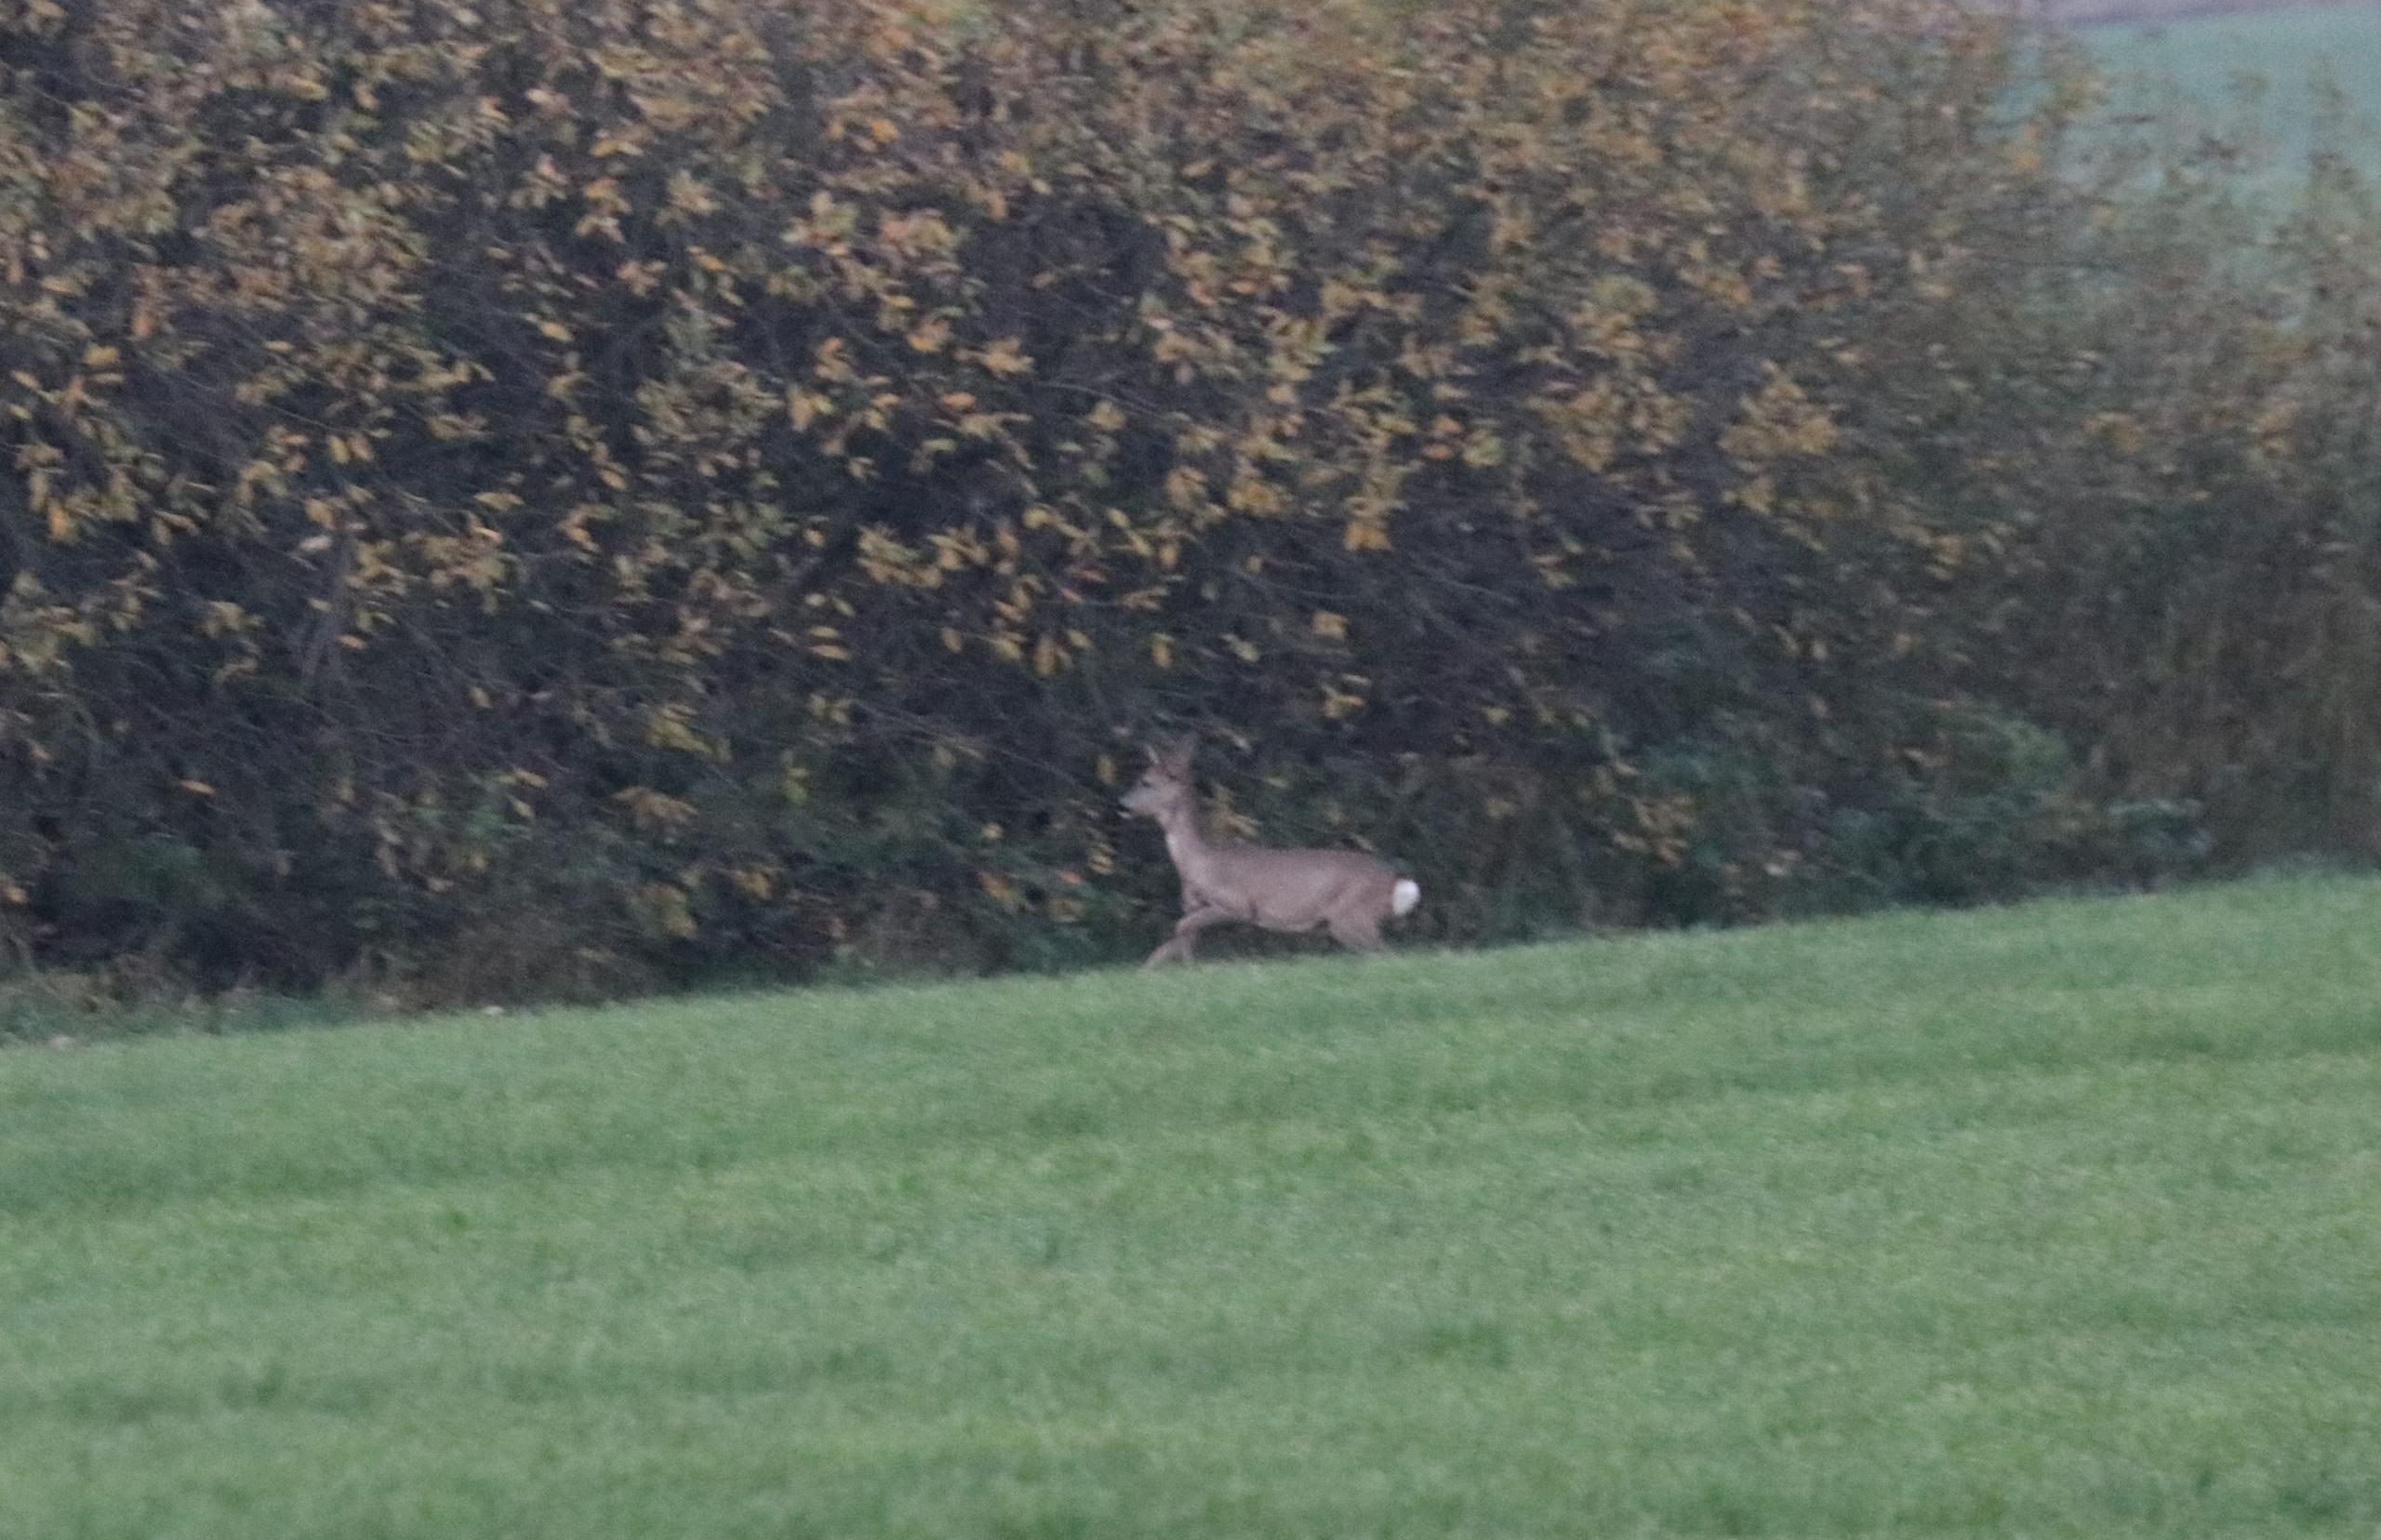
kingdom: Animalia
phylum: Chordata
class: Mammalia
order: Artiodactyla
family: Cervidae
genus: Capreolus
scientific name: Capreolus capreolus
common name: Rådyr
